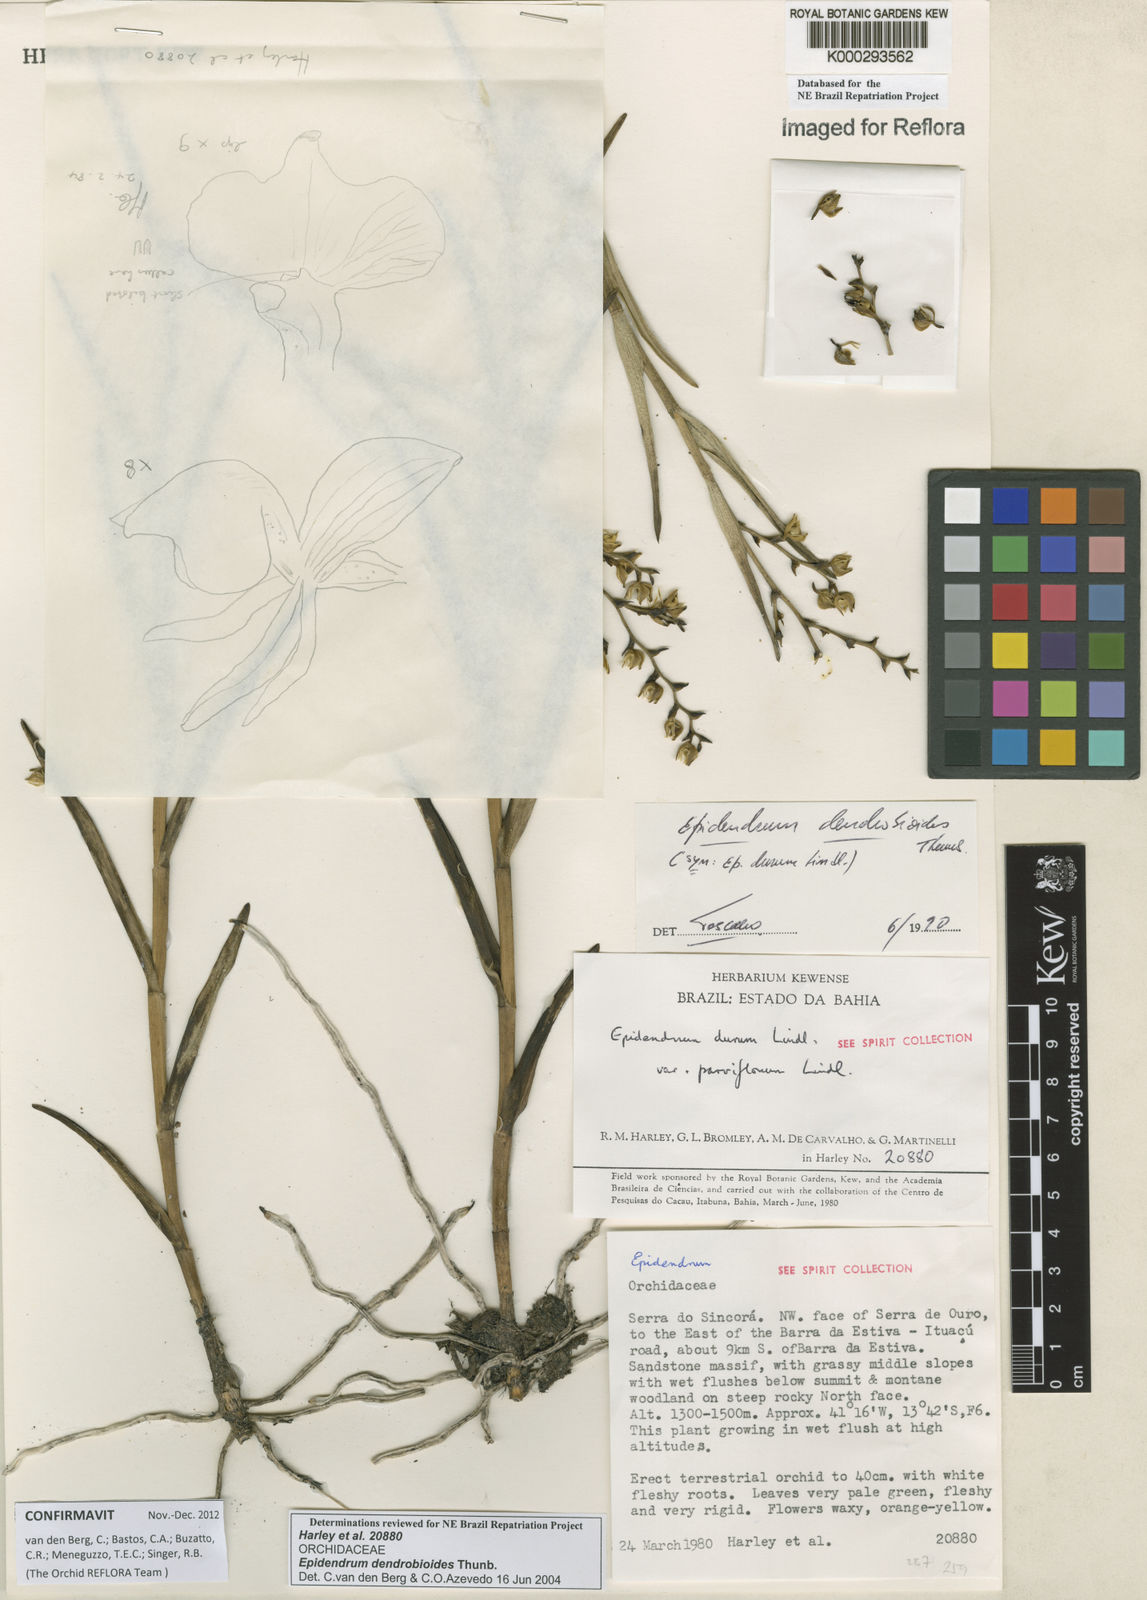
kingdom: Plantae
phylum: Tracheophyta
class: Liliopsida
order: Asparagales
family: Orchidaceae
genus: Epidendrum
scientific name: Epidendrum dendrobioides
